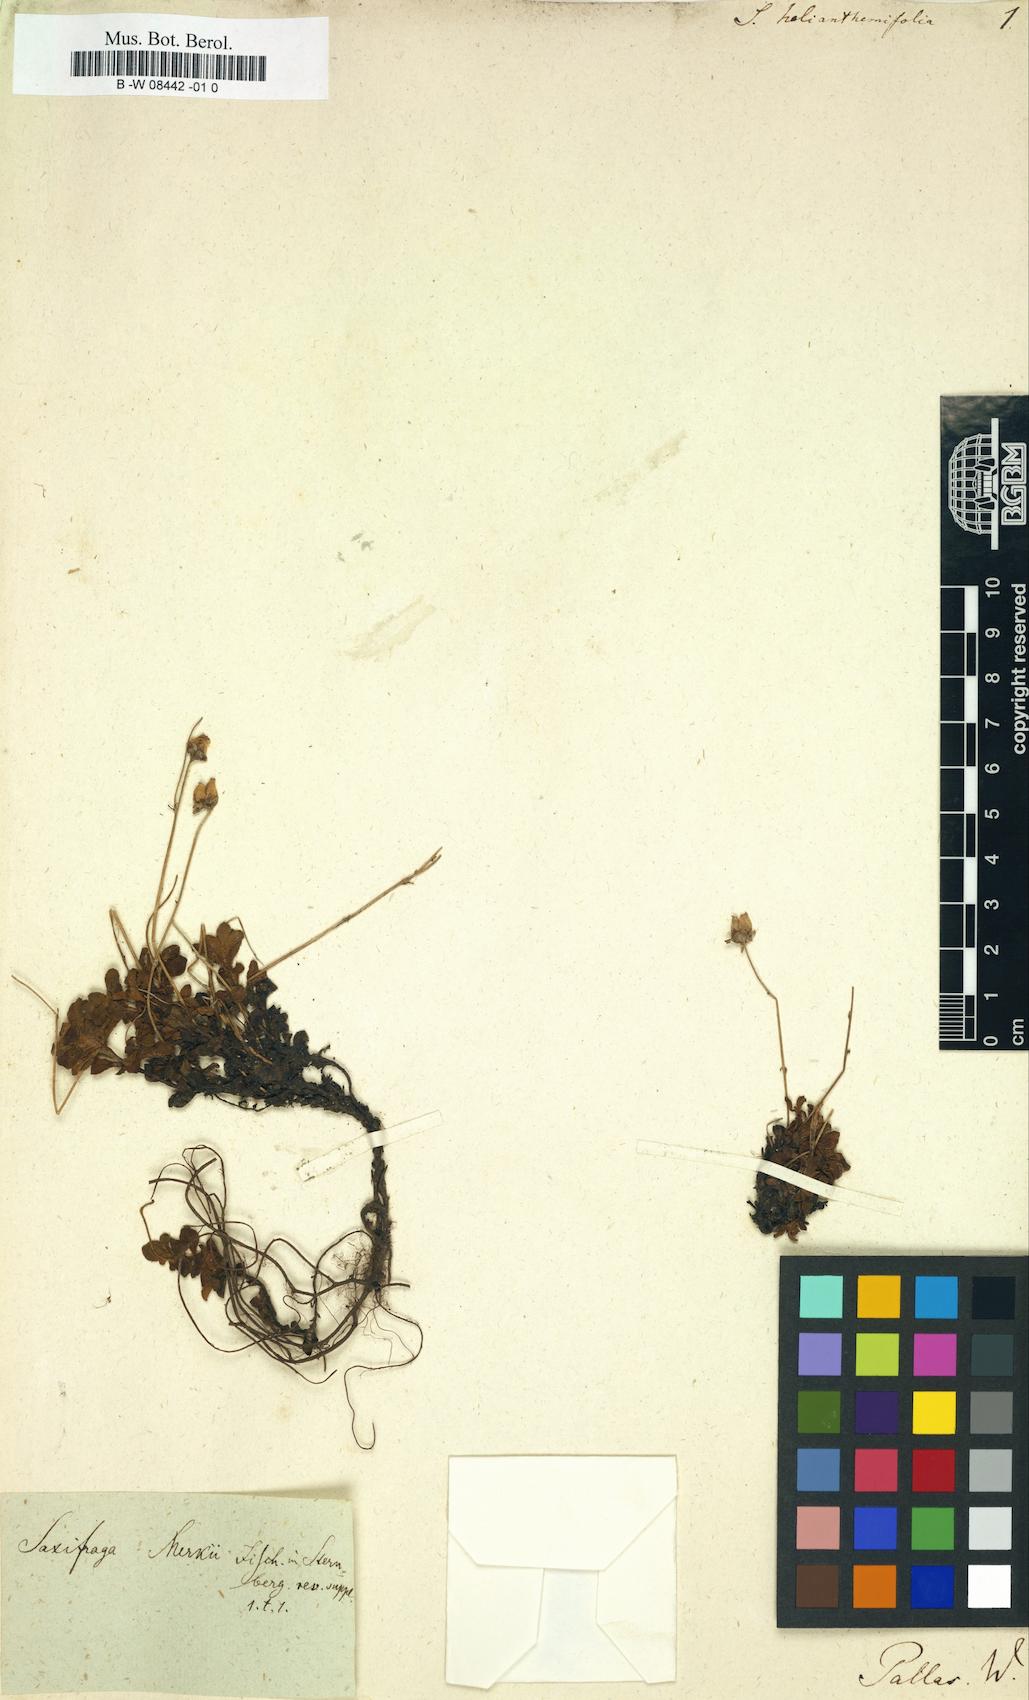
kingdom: Plantae
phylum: Tracheophyta
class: Magnoliopsida
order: Caryophyllales
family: Caryophyllaceae
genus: Silene
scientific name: Silene
